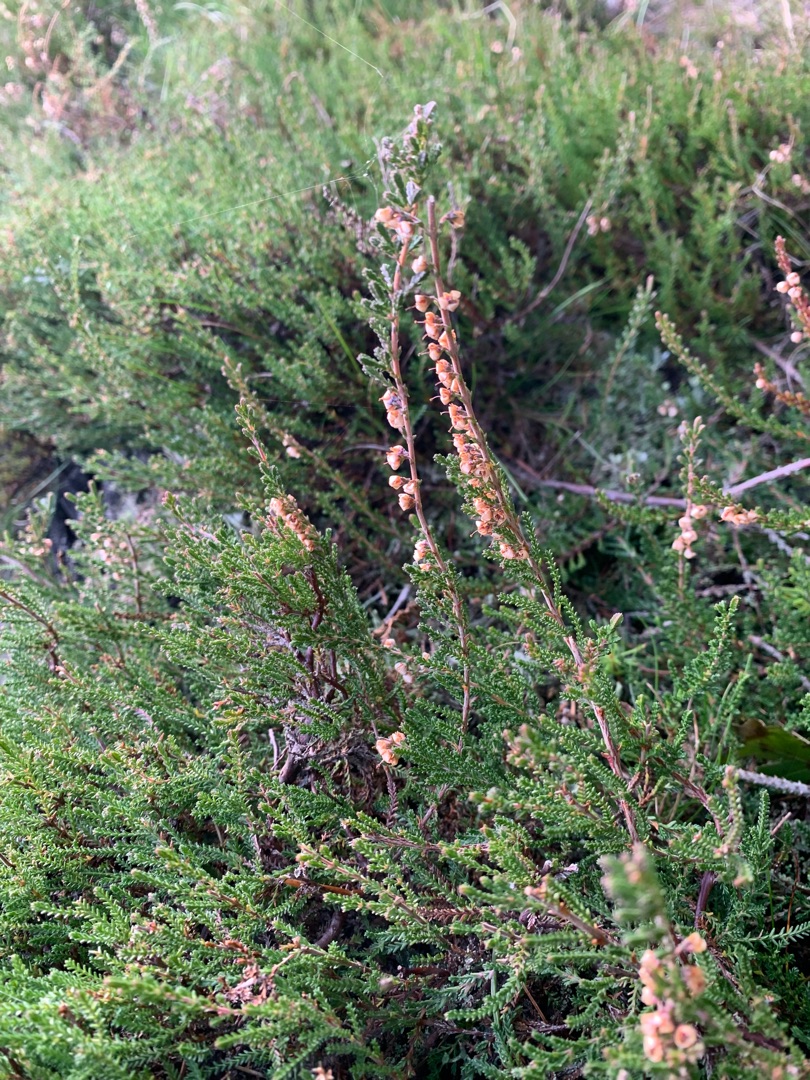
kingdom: Plantae
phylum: Tracheophyta
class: Magnoliopsida
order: Ericales
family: Ericaceae
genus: Calluna
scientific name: Calluna vulgaris
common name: Hedelyng
